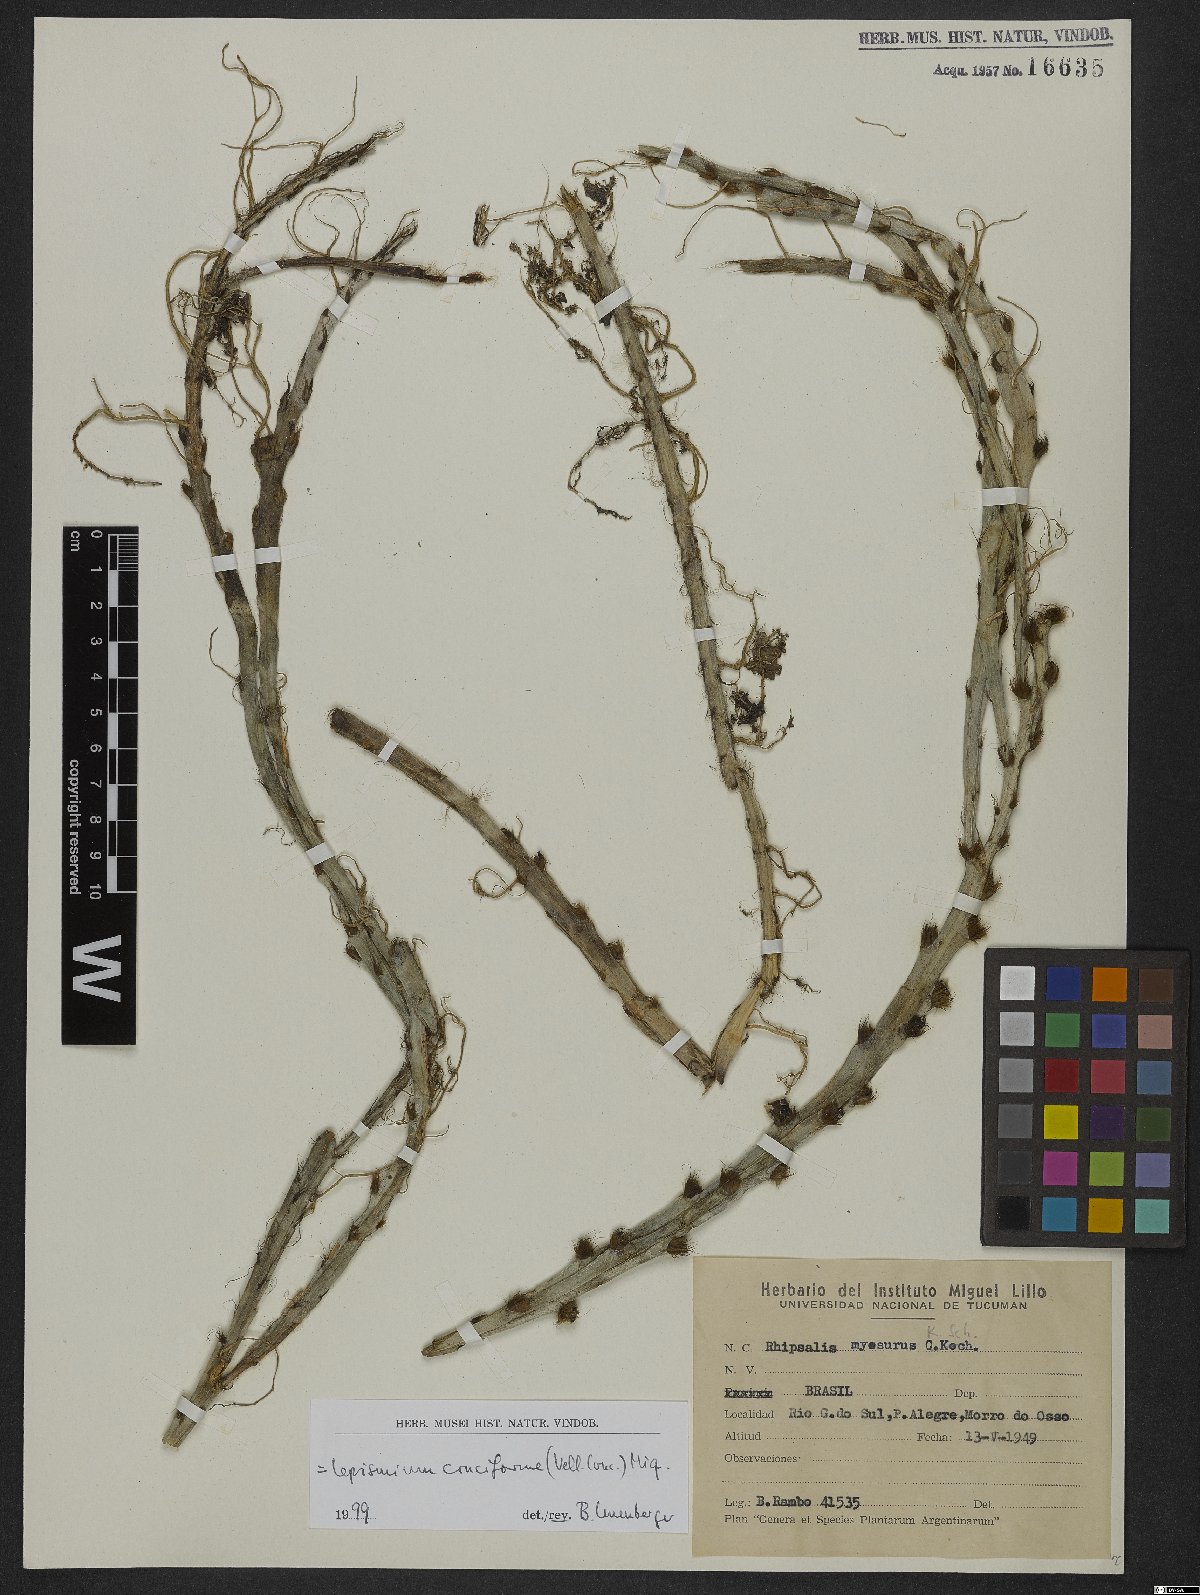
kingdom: Plantae
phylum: Tracheophyta
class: Magnoliopsida
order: Caryophyllales
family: Cactaceae
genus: Lepismium
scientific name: Lepismium cruciforme
